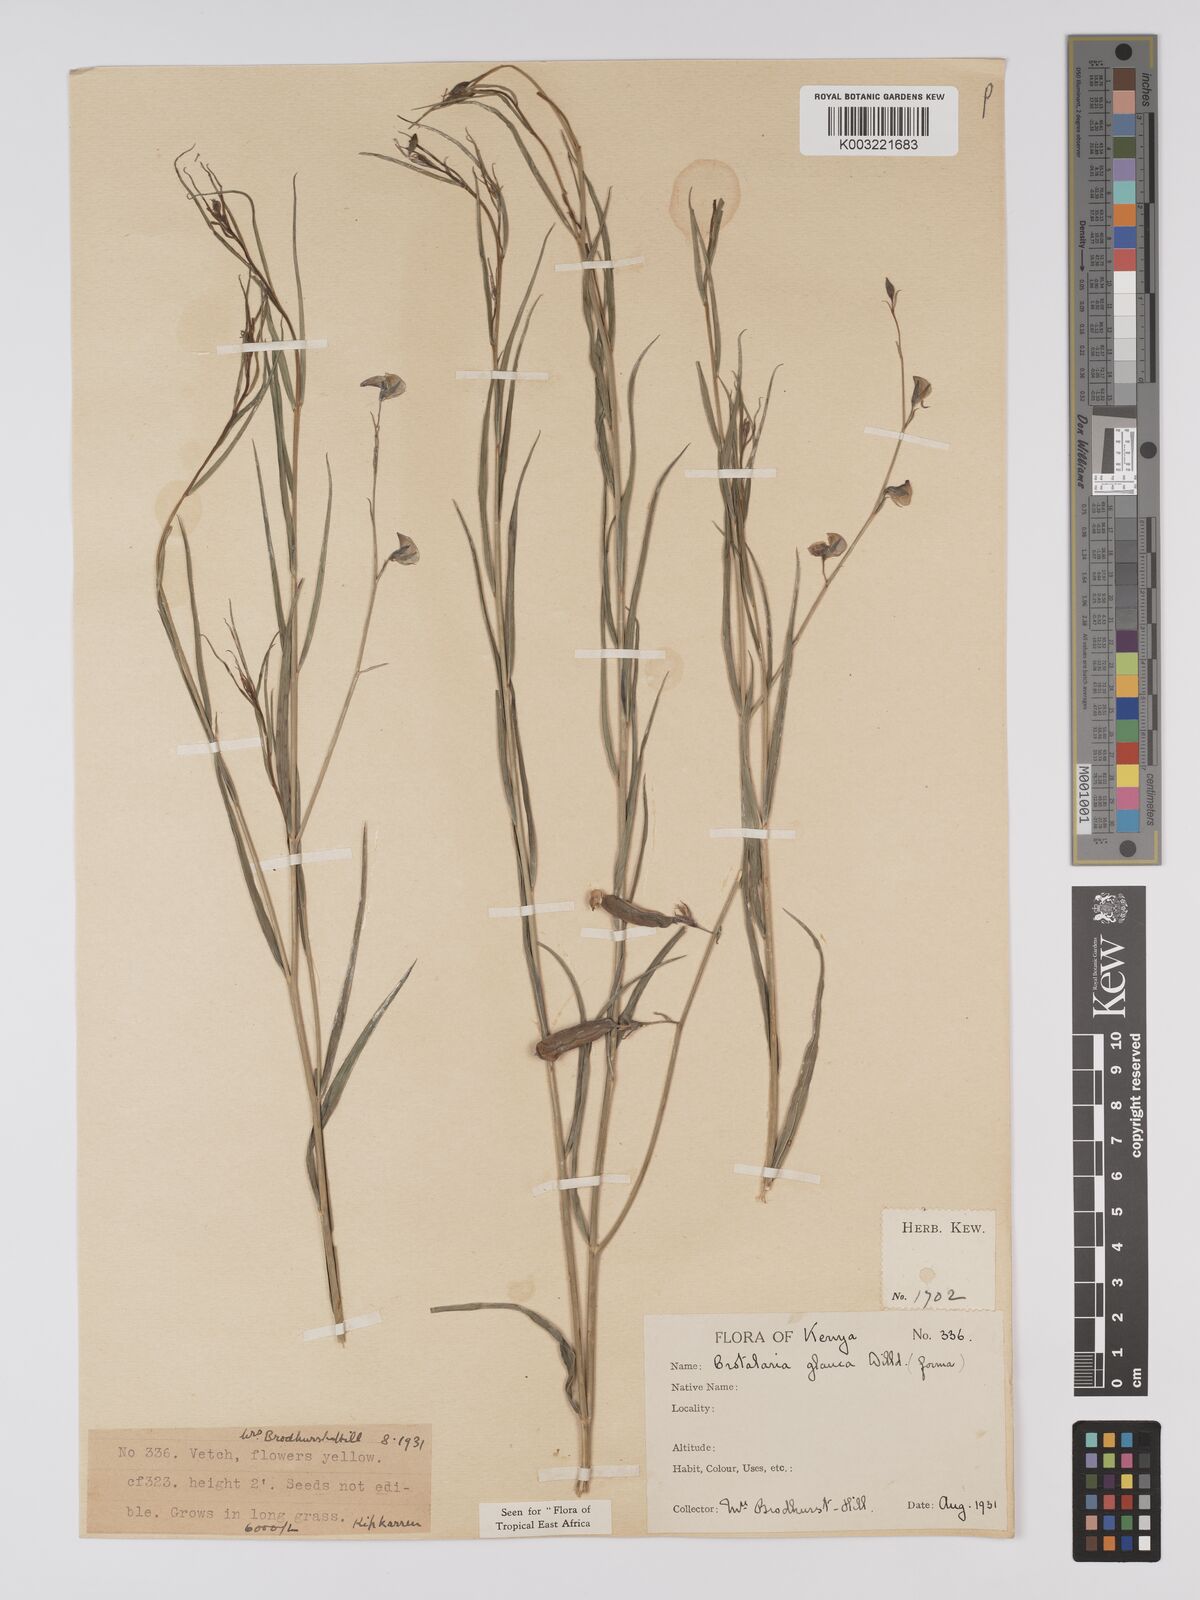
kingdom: Plantae
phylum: Tracheophyta
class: Magnoliopsida
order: Fabales
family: Fabaceae
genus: Crotalaria
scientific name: Crotalaria glauca
